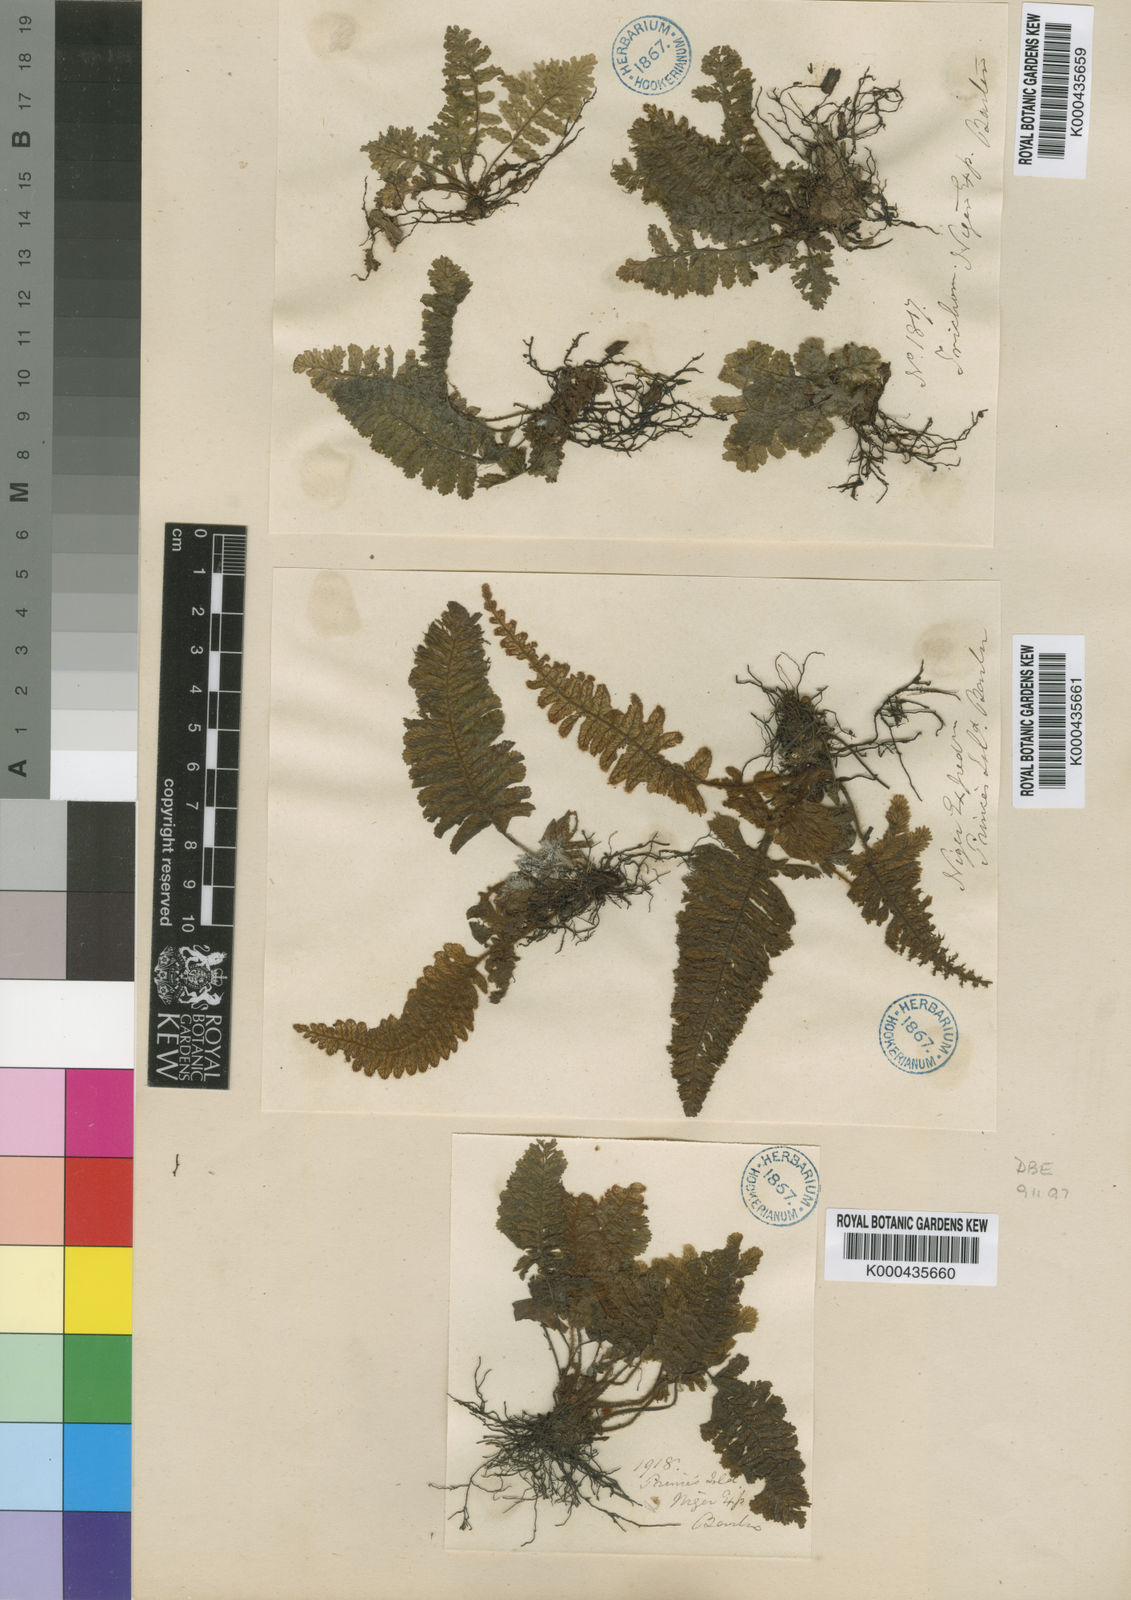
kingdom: Plantae
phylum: Tracheophyta
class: Polypodiopsida
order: Hymenophyllales
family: Hymenophyllaceae
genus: Trichomanes
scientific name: Trichomanes crispiforme
